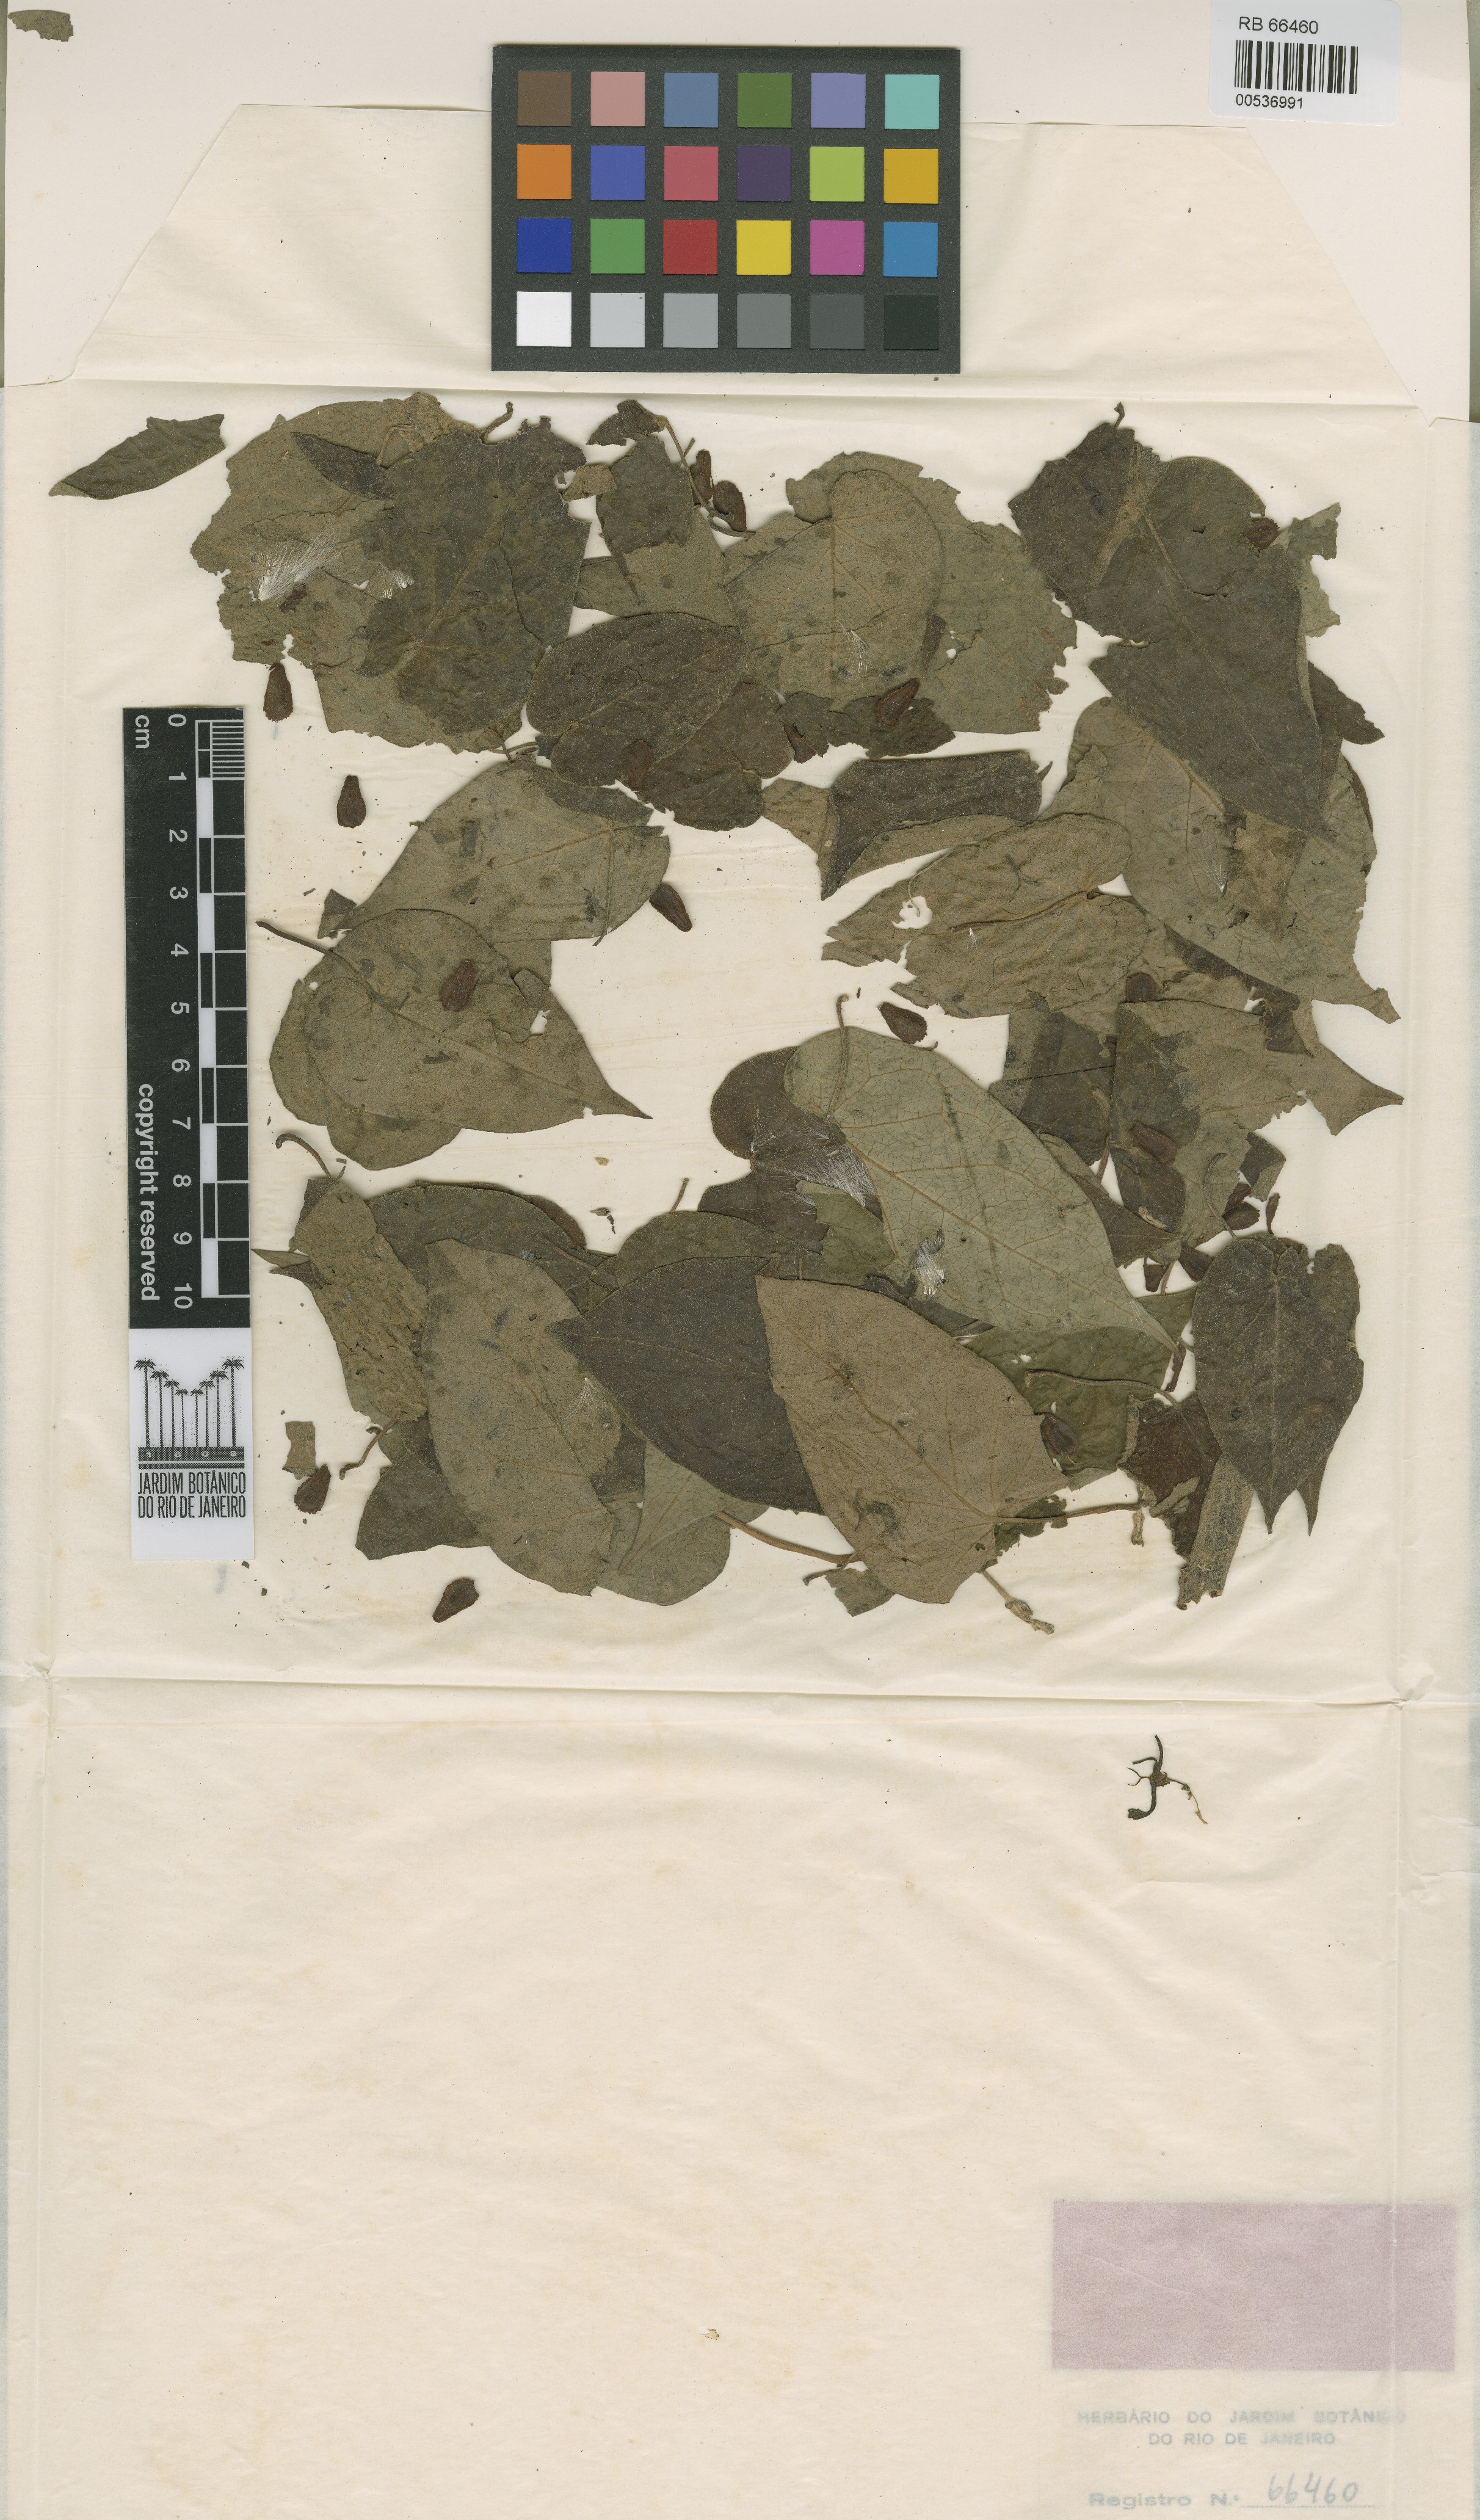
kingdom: Plantae
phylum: Tracheophyta
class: Magnoliopsida
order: Gentianales
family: Apocynaceae
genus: Oxypetalum
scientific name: Oxypetalum cordifolium
